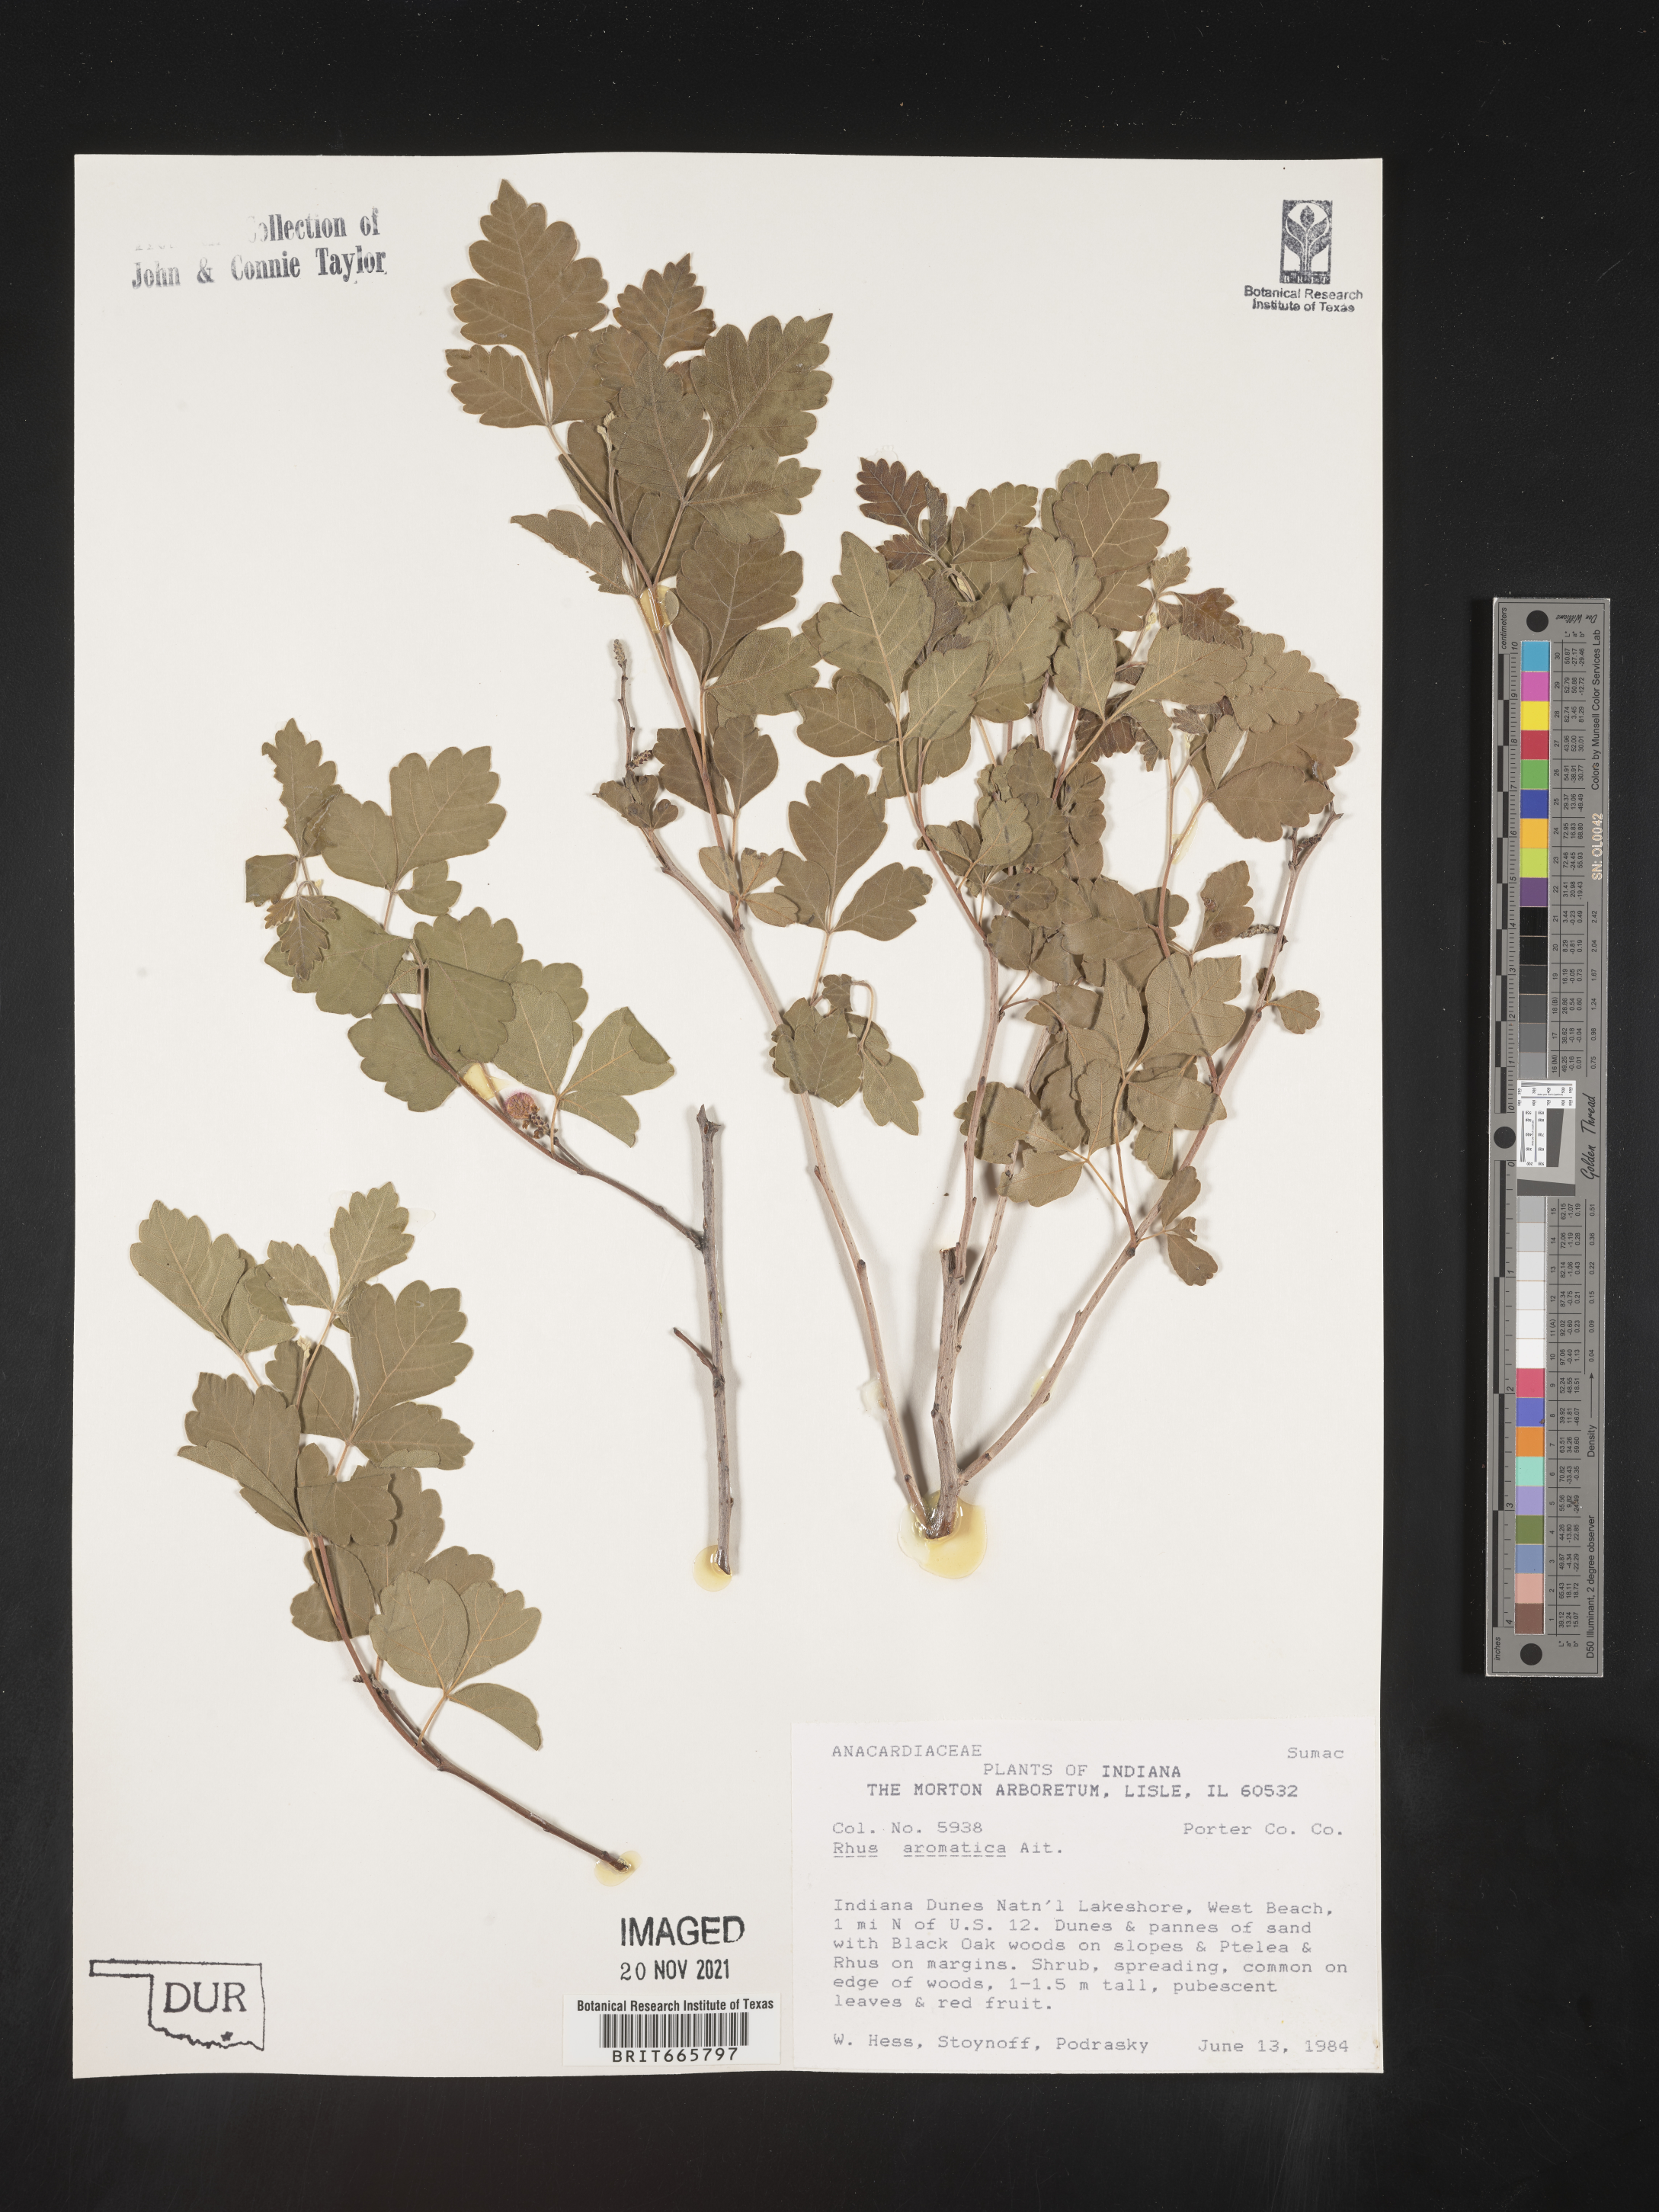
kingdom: Plantae
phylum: Tracheophyta
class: Magnoliopsida
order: Sapindales
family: Anacardiaceae
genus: Rhus
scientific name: Rhus aromatica
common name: Aromatic sumac
